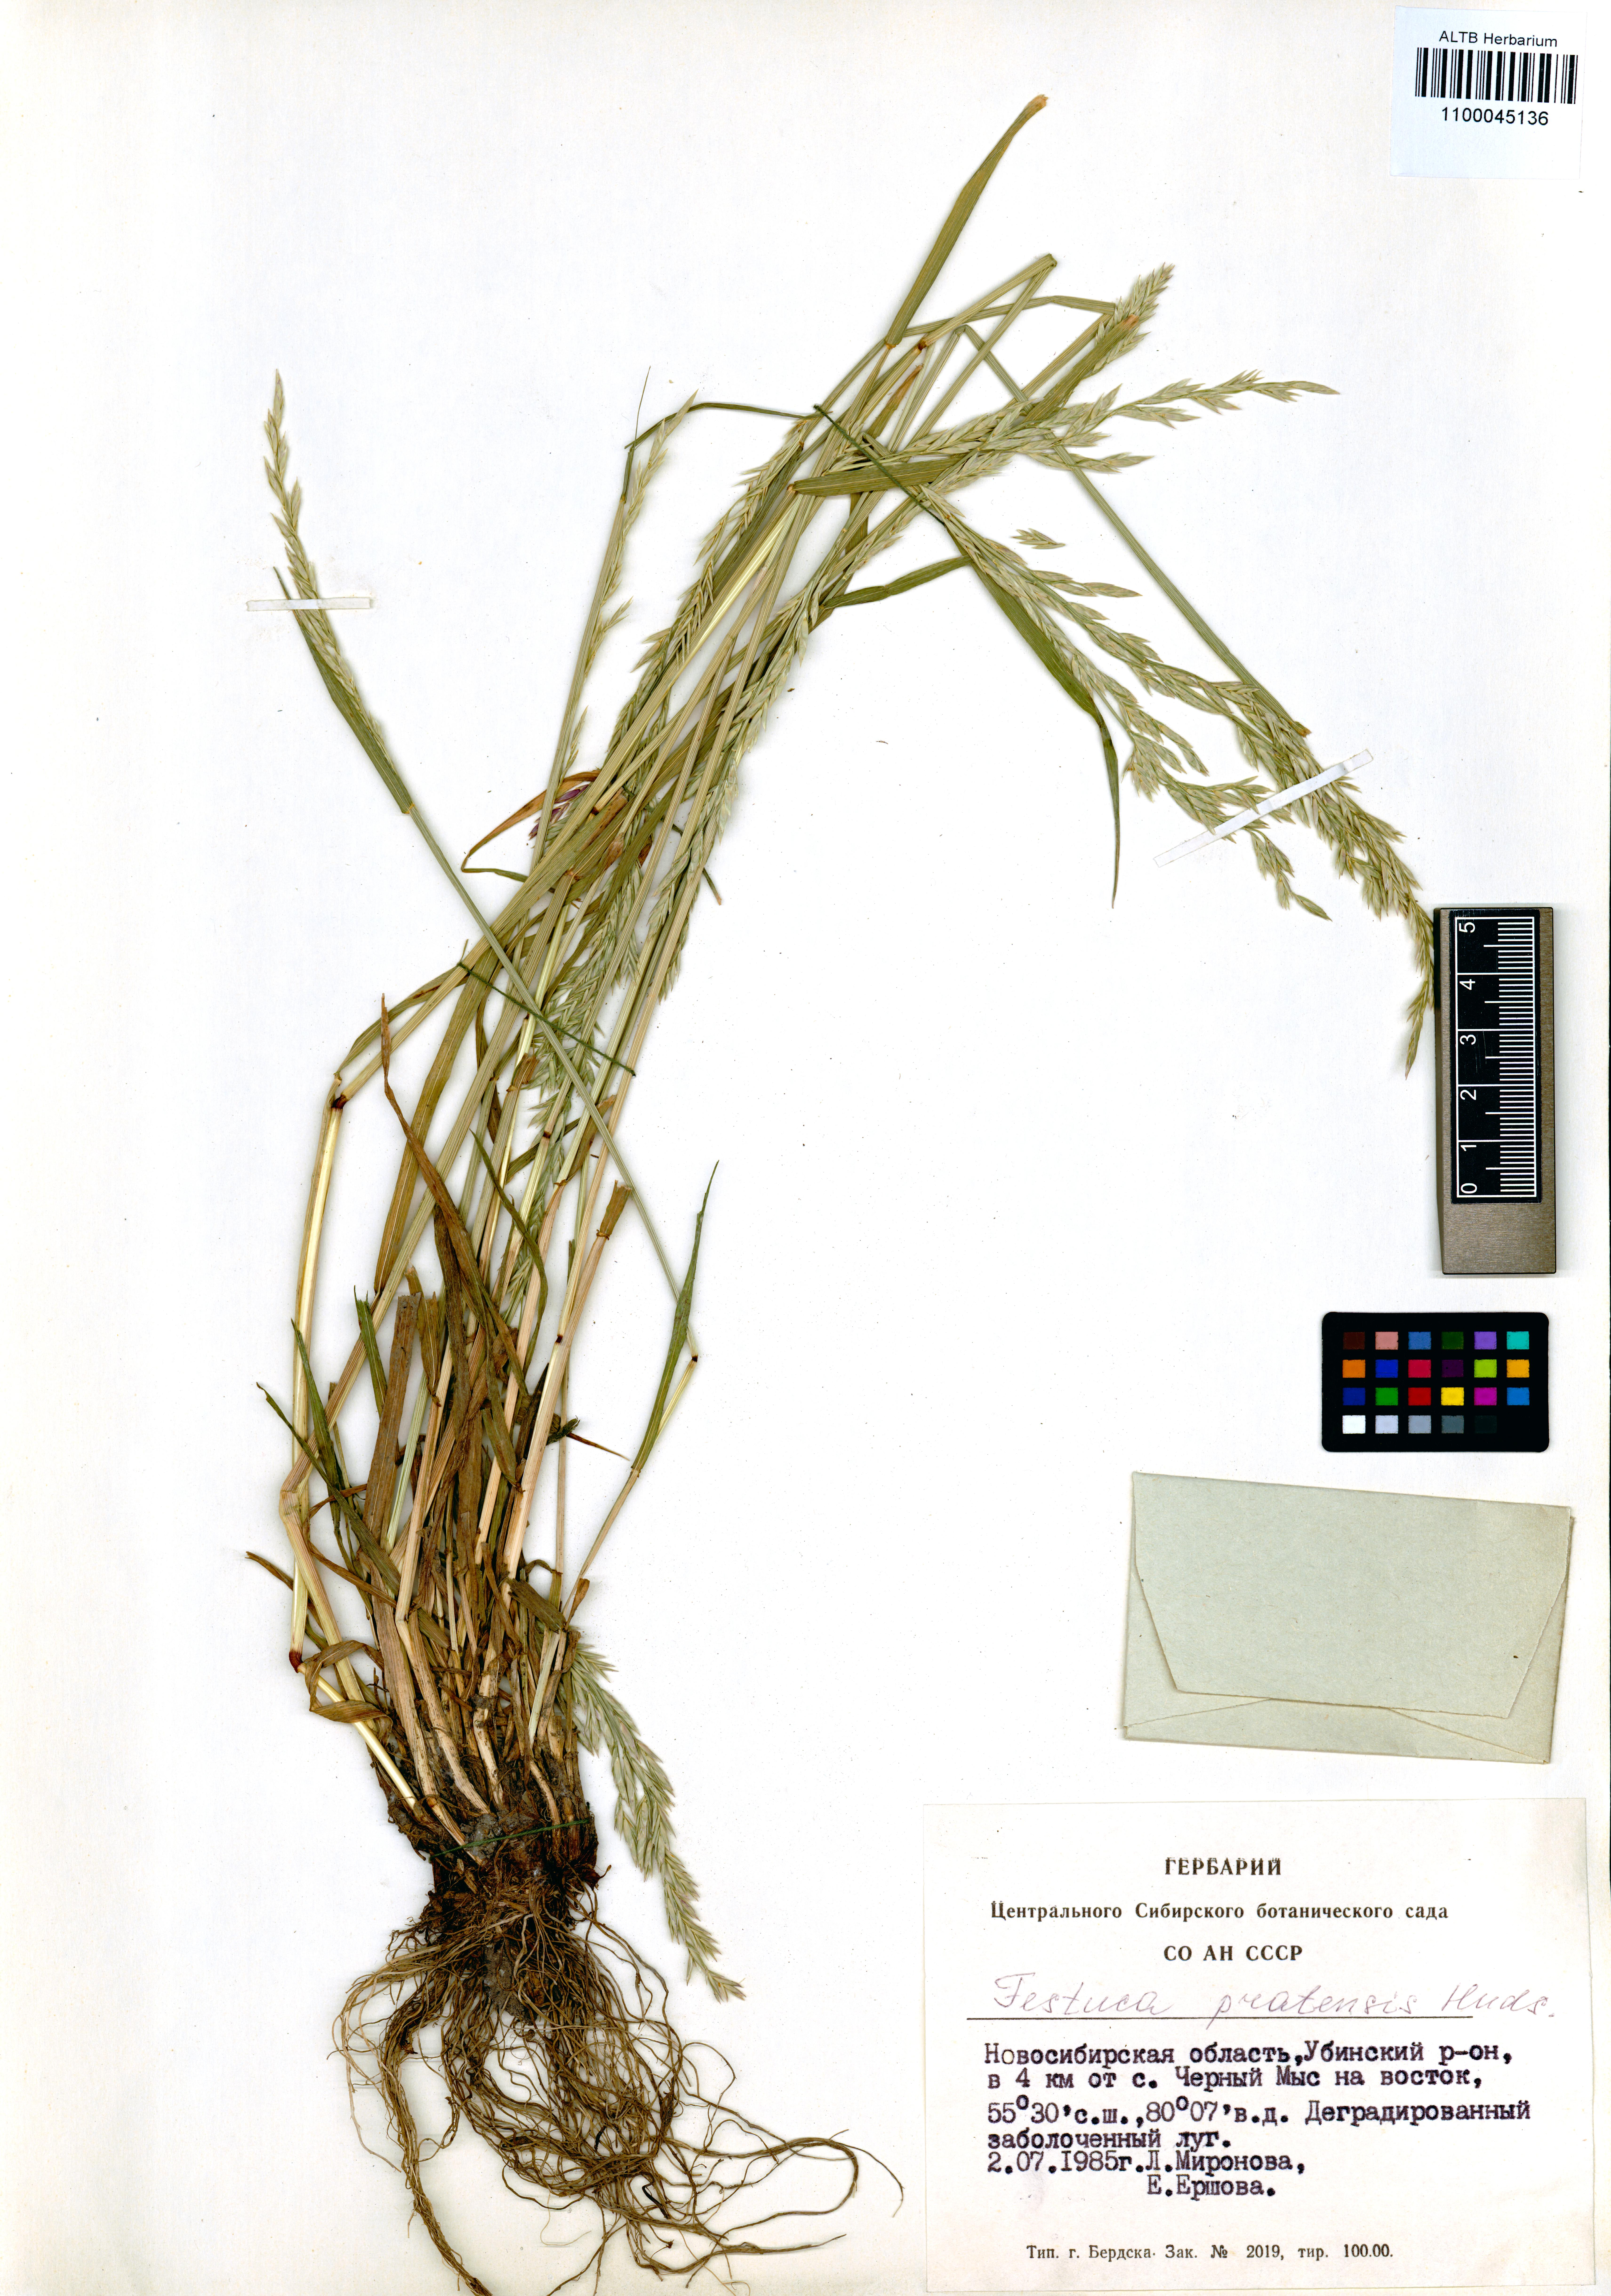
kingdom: Plantae
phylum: Tracheophyta
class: Liliopsida
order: Poales
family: Poaceae
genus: Lolium
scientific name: Lolium pratense
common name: Dover grass
